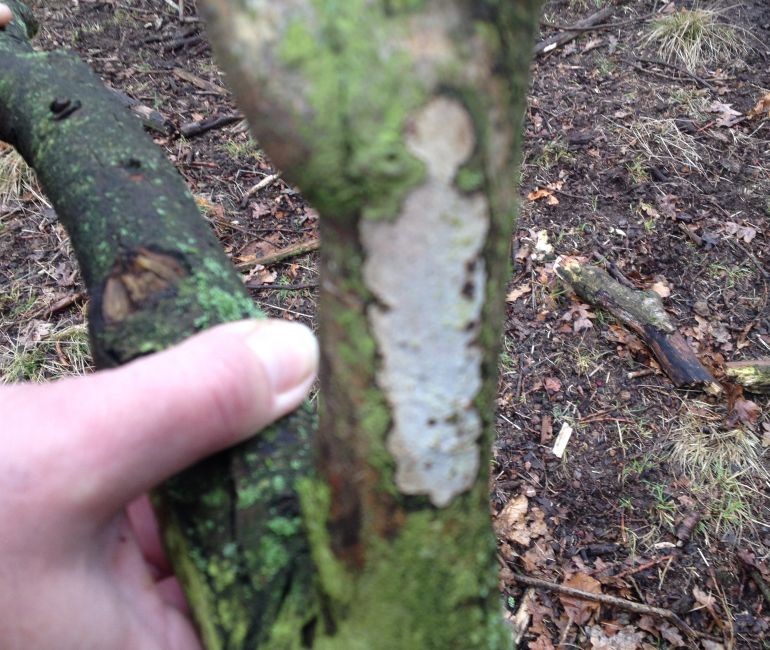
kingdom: Fungi
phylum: Basidiomycota
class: Agaricomycetes
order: Corticiales
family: Vuilleminiaceae
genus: Vuilleminia
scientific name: Vuilleminia cystidiata
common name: tjørne-barksprænger
